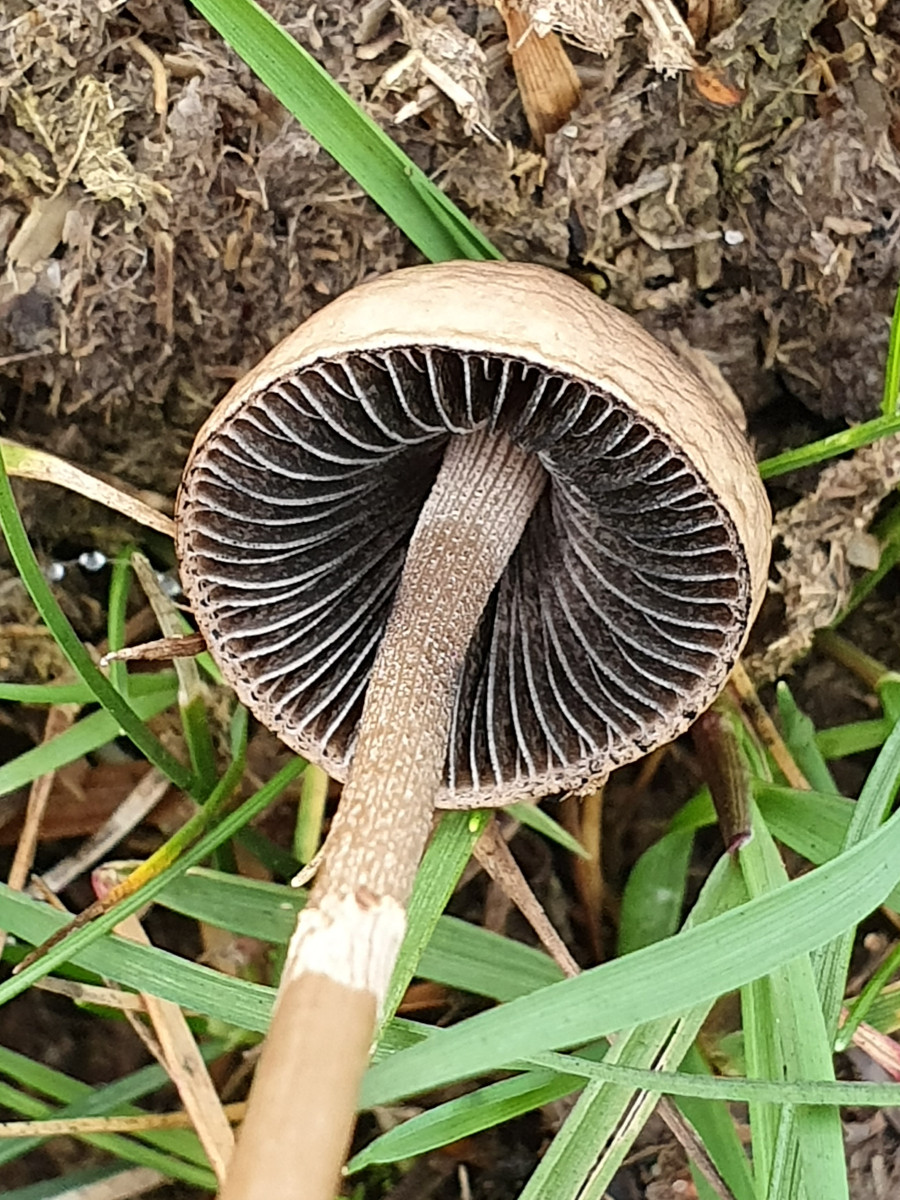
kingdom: Fungi
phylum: Basidiomycota
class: Agaricomycetes
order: Agaricales
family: Bolbitiaceae
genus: Panaeolus
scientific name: Panaeolus semiovatus
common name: ring-glanshat
